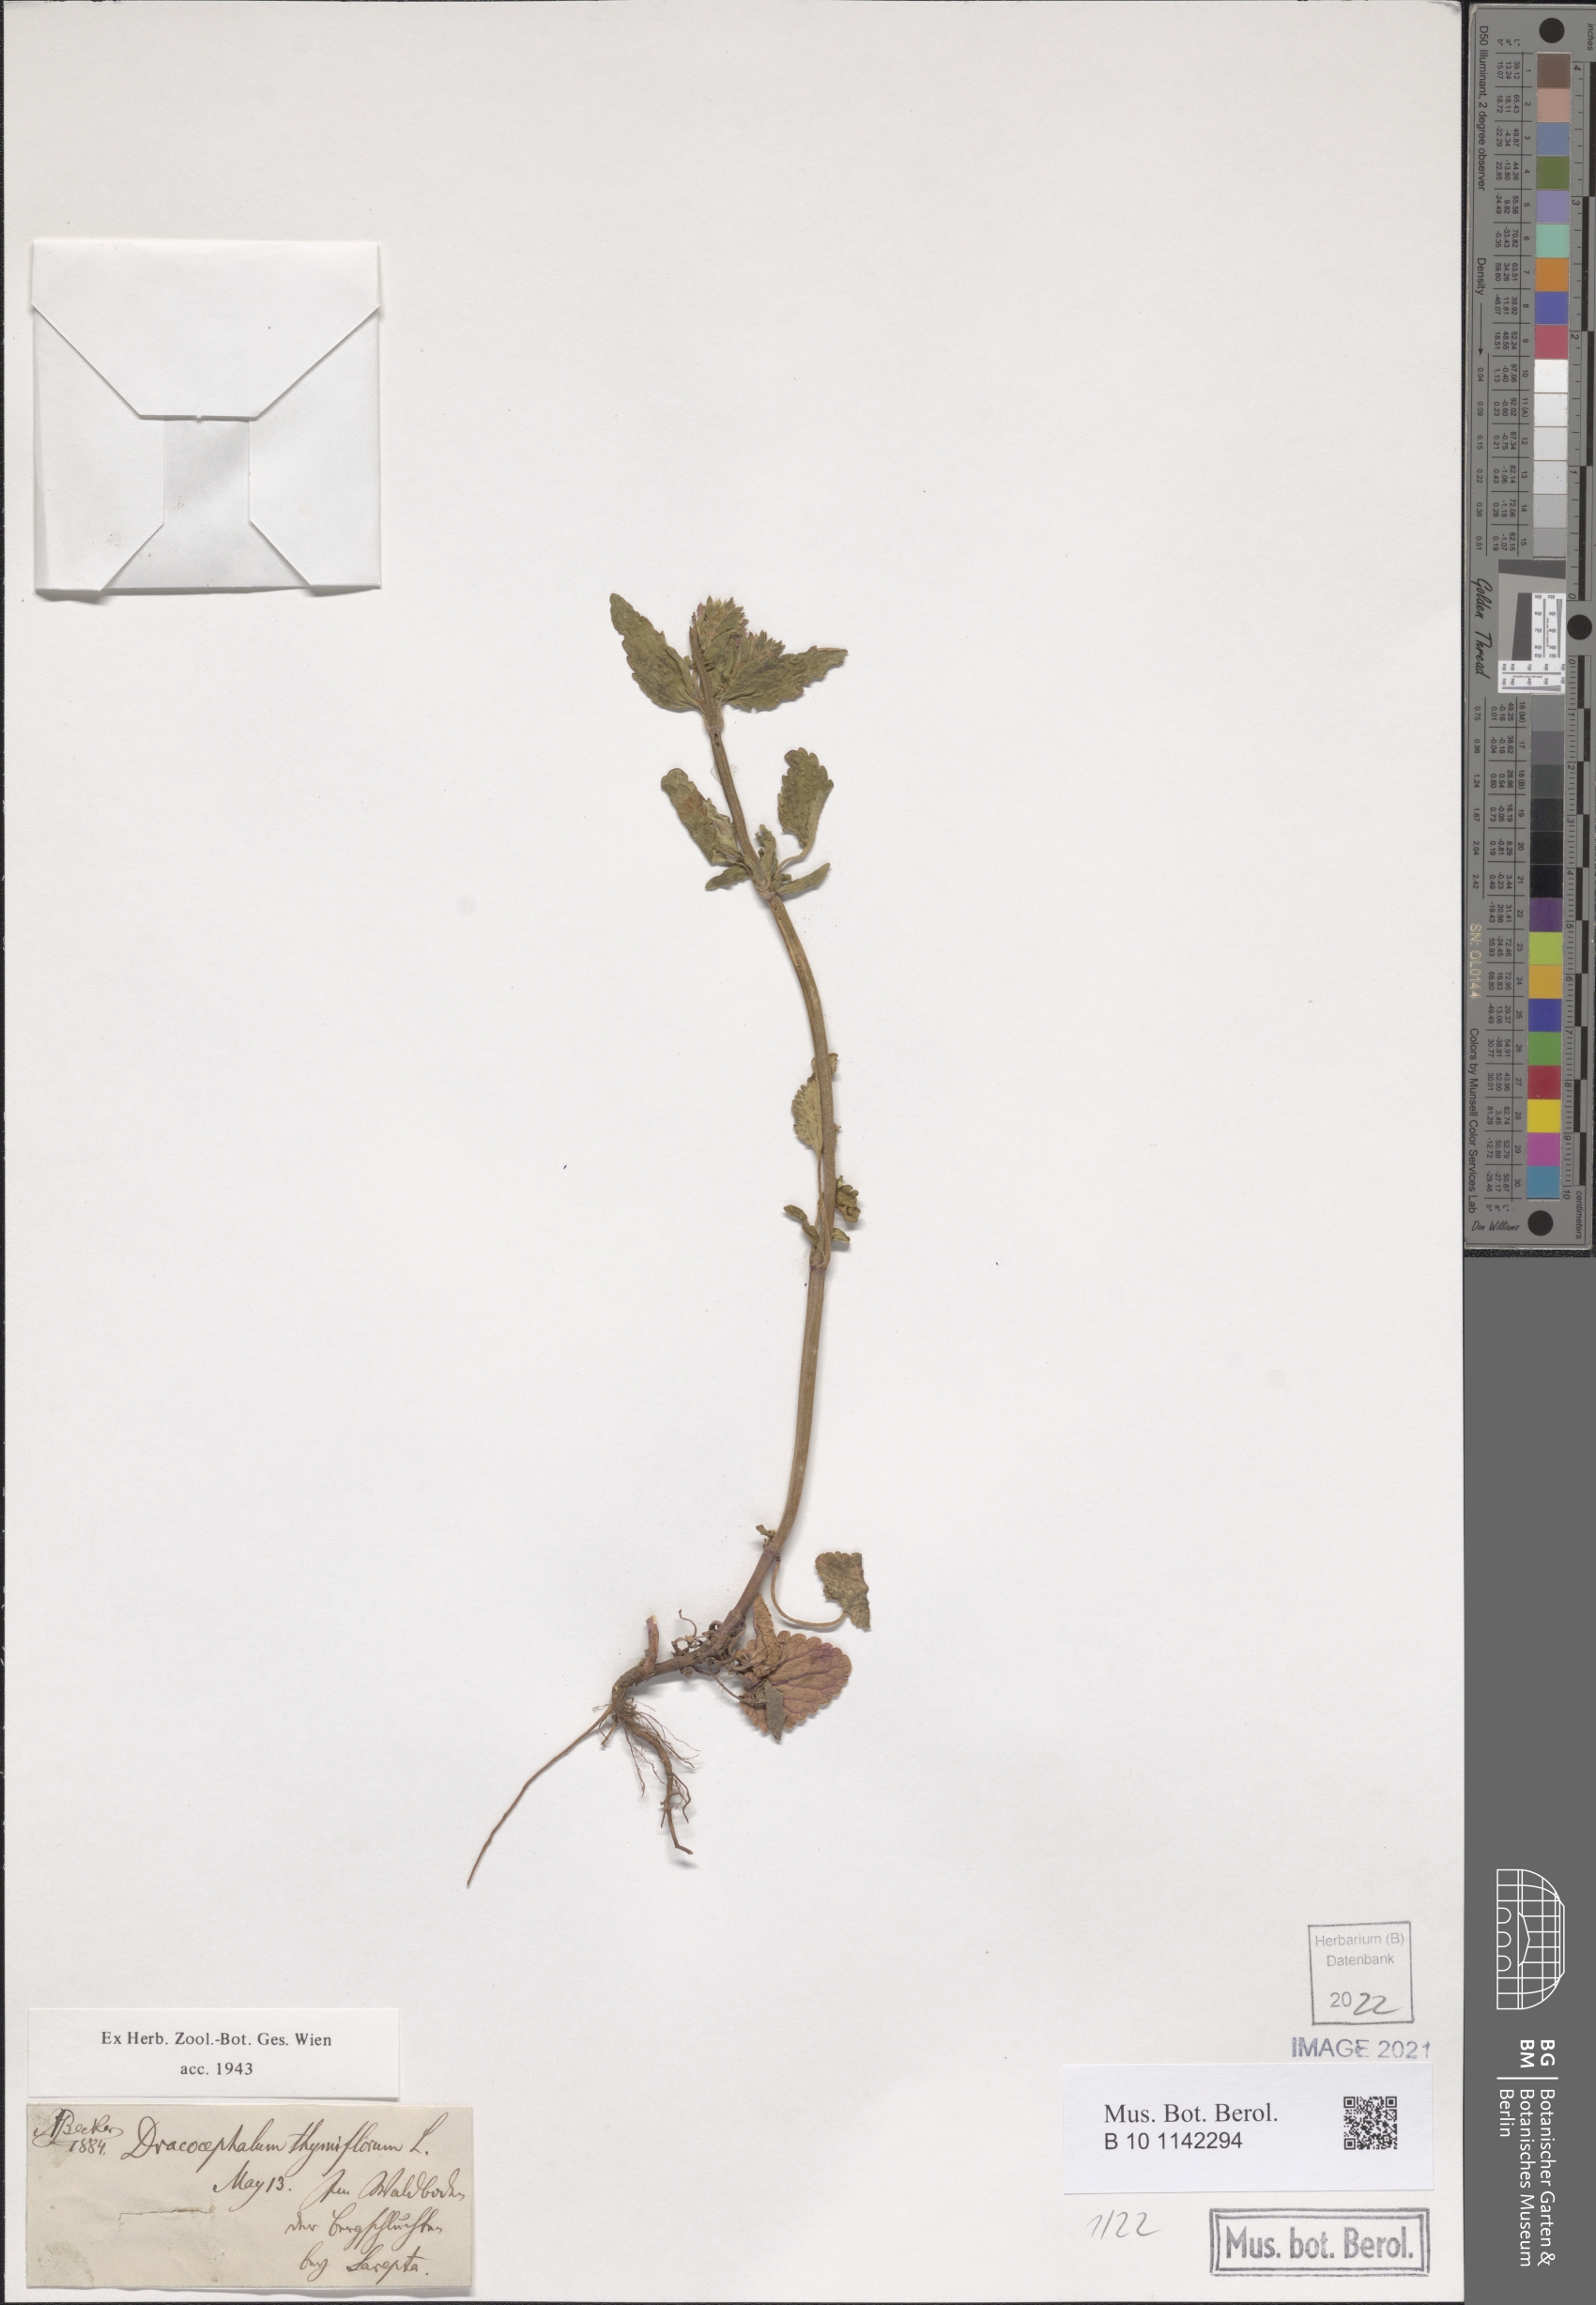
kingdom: Plantae
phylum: Tracheophyta
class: Magnoliopsida
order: Lamiales
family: Lamiaceae
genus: Dracocephalum
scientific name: Dracocephalum thymiflorum
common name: Thymeleaf dragonhead
